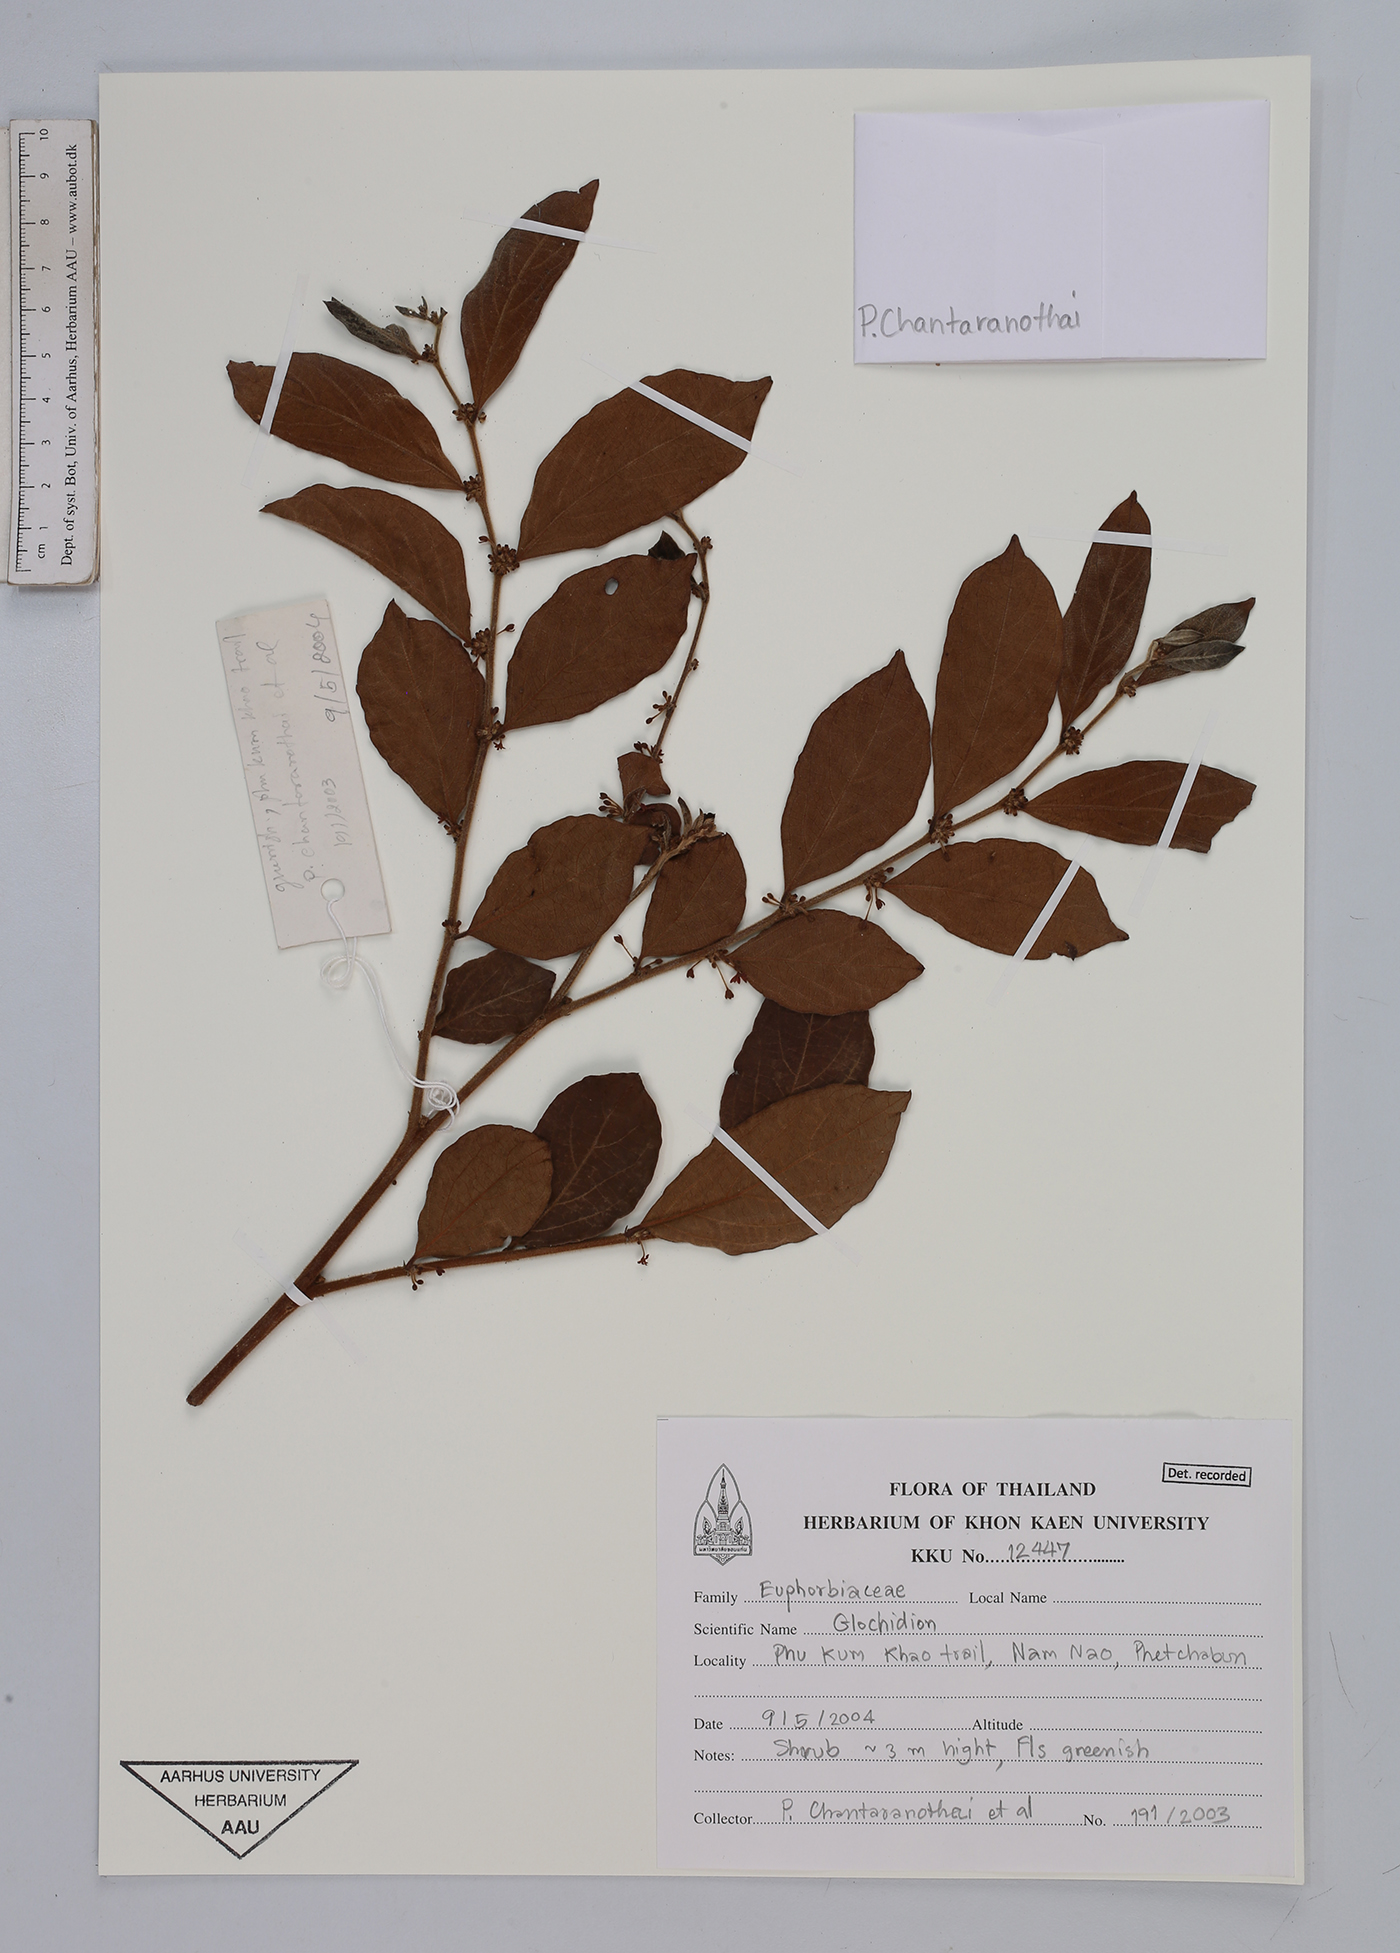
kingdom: Plantae
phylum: Tracheophyta
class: Magnoliopsida
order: Malpighiales
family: Phyllanthaceae
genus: Glochidion
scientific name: Glochidion
